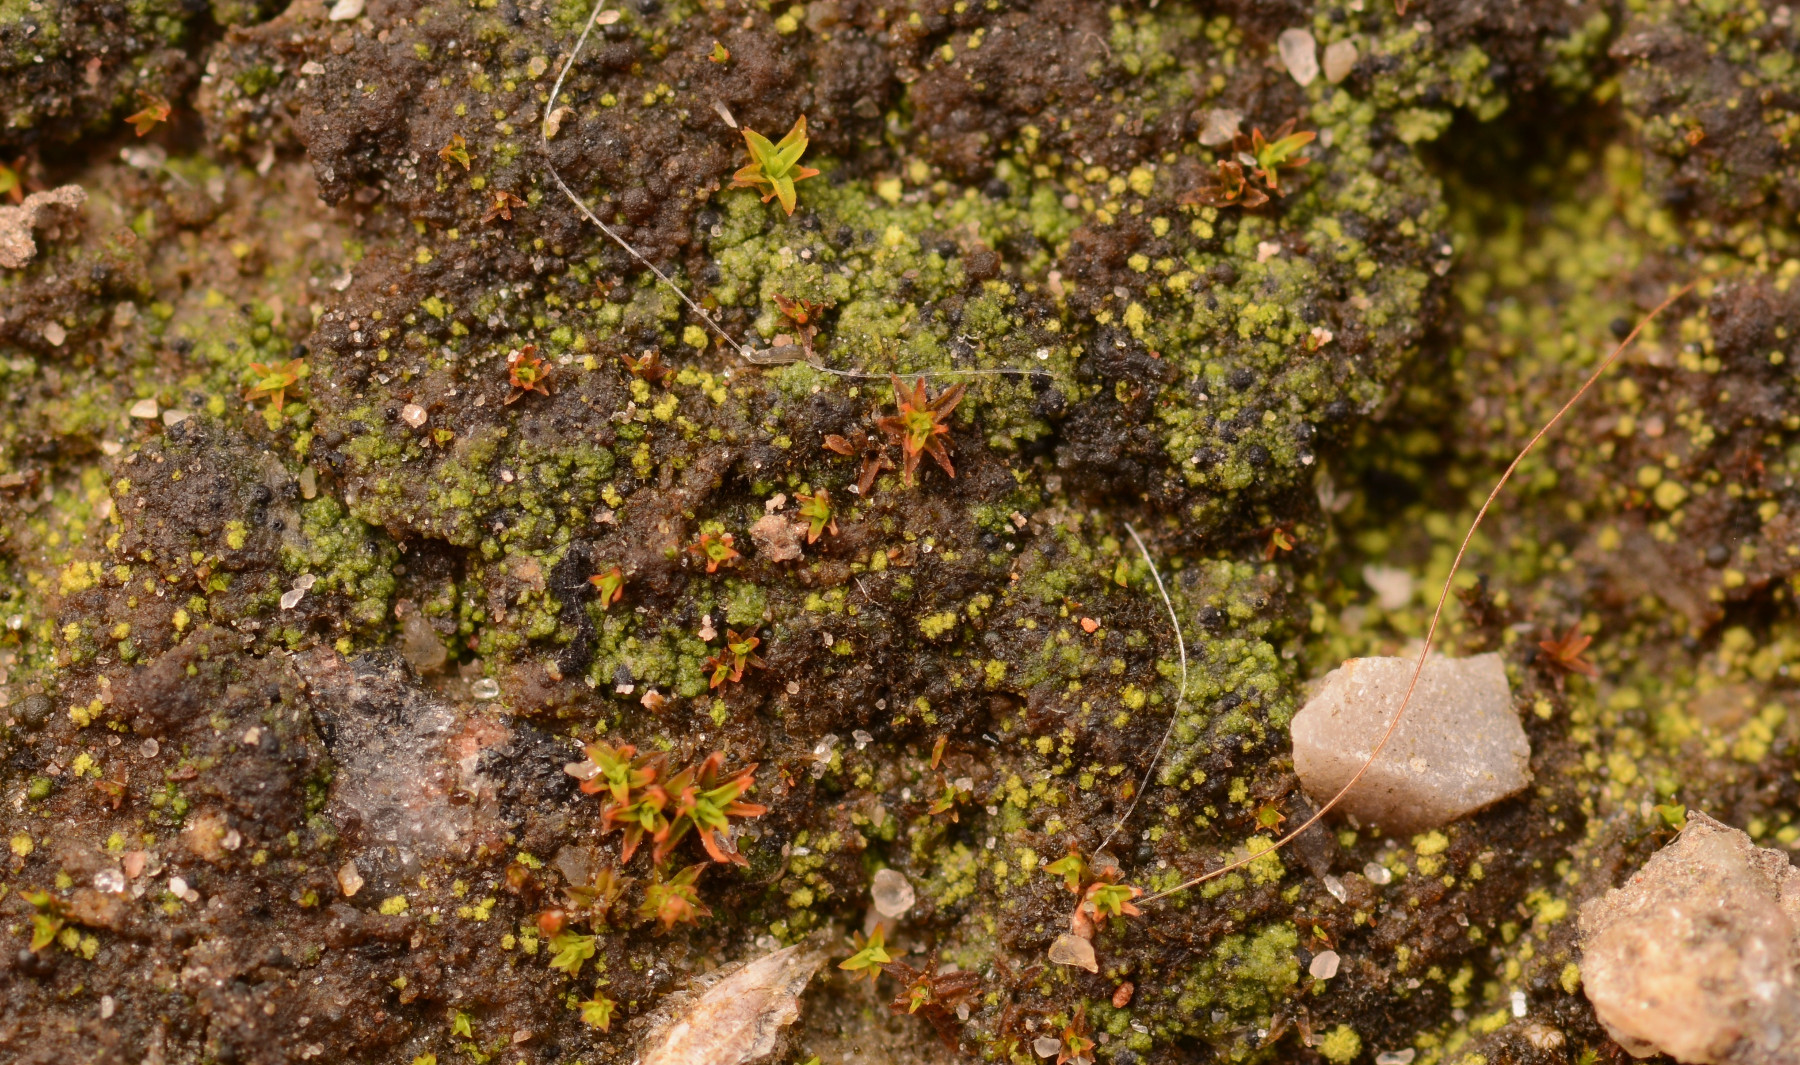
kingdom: Fungi
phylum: Ascomycota
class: Eurotiomycetes
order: Verrucariales
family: Verrucariaceae
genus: Verrucaria
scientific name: Verrucaria bryoctona
